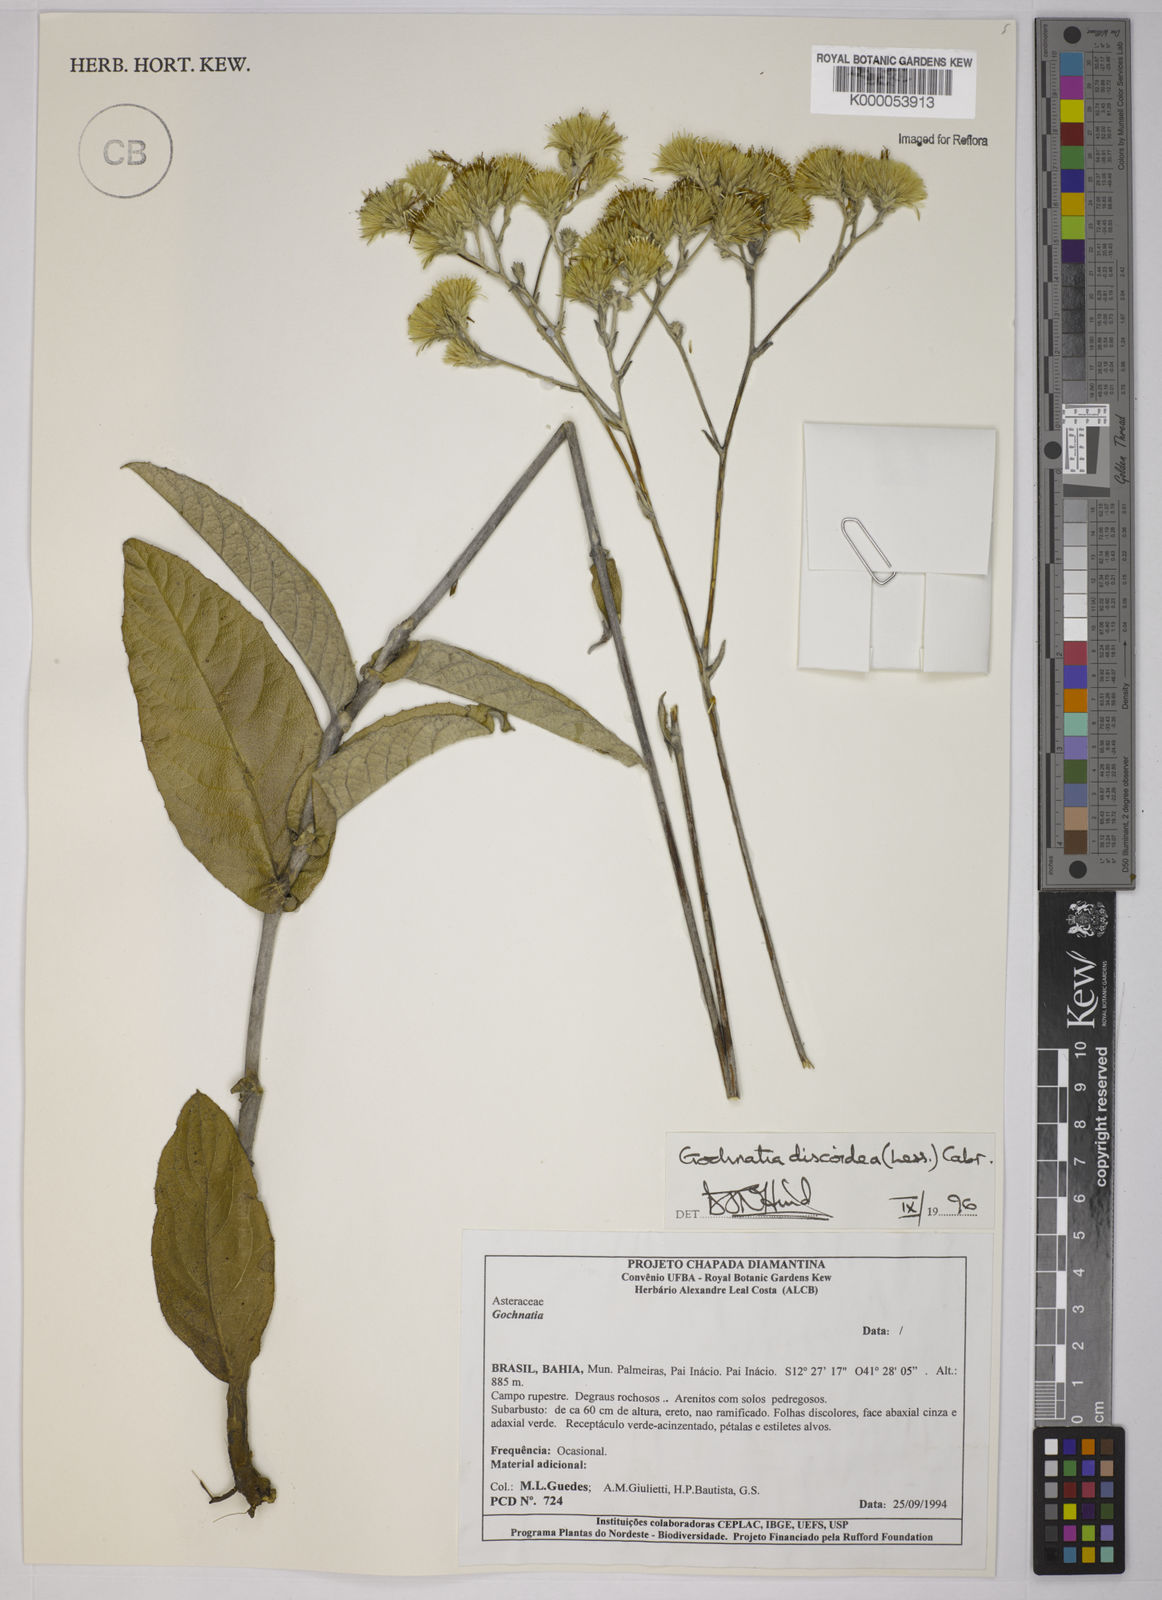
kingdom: Plantae
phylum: Tracheophyta
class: Magnoliopsida
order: Asterales
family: Asteraceae
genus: Richterago
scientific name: Richterago discoidea
